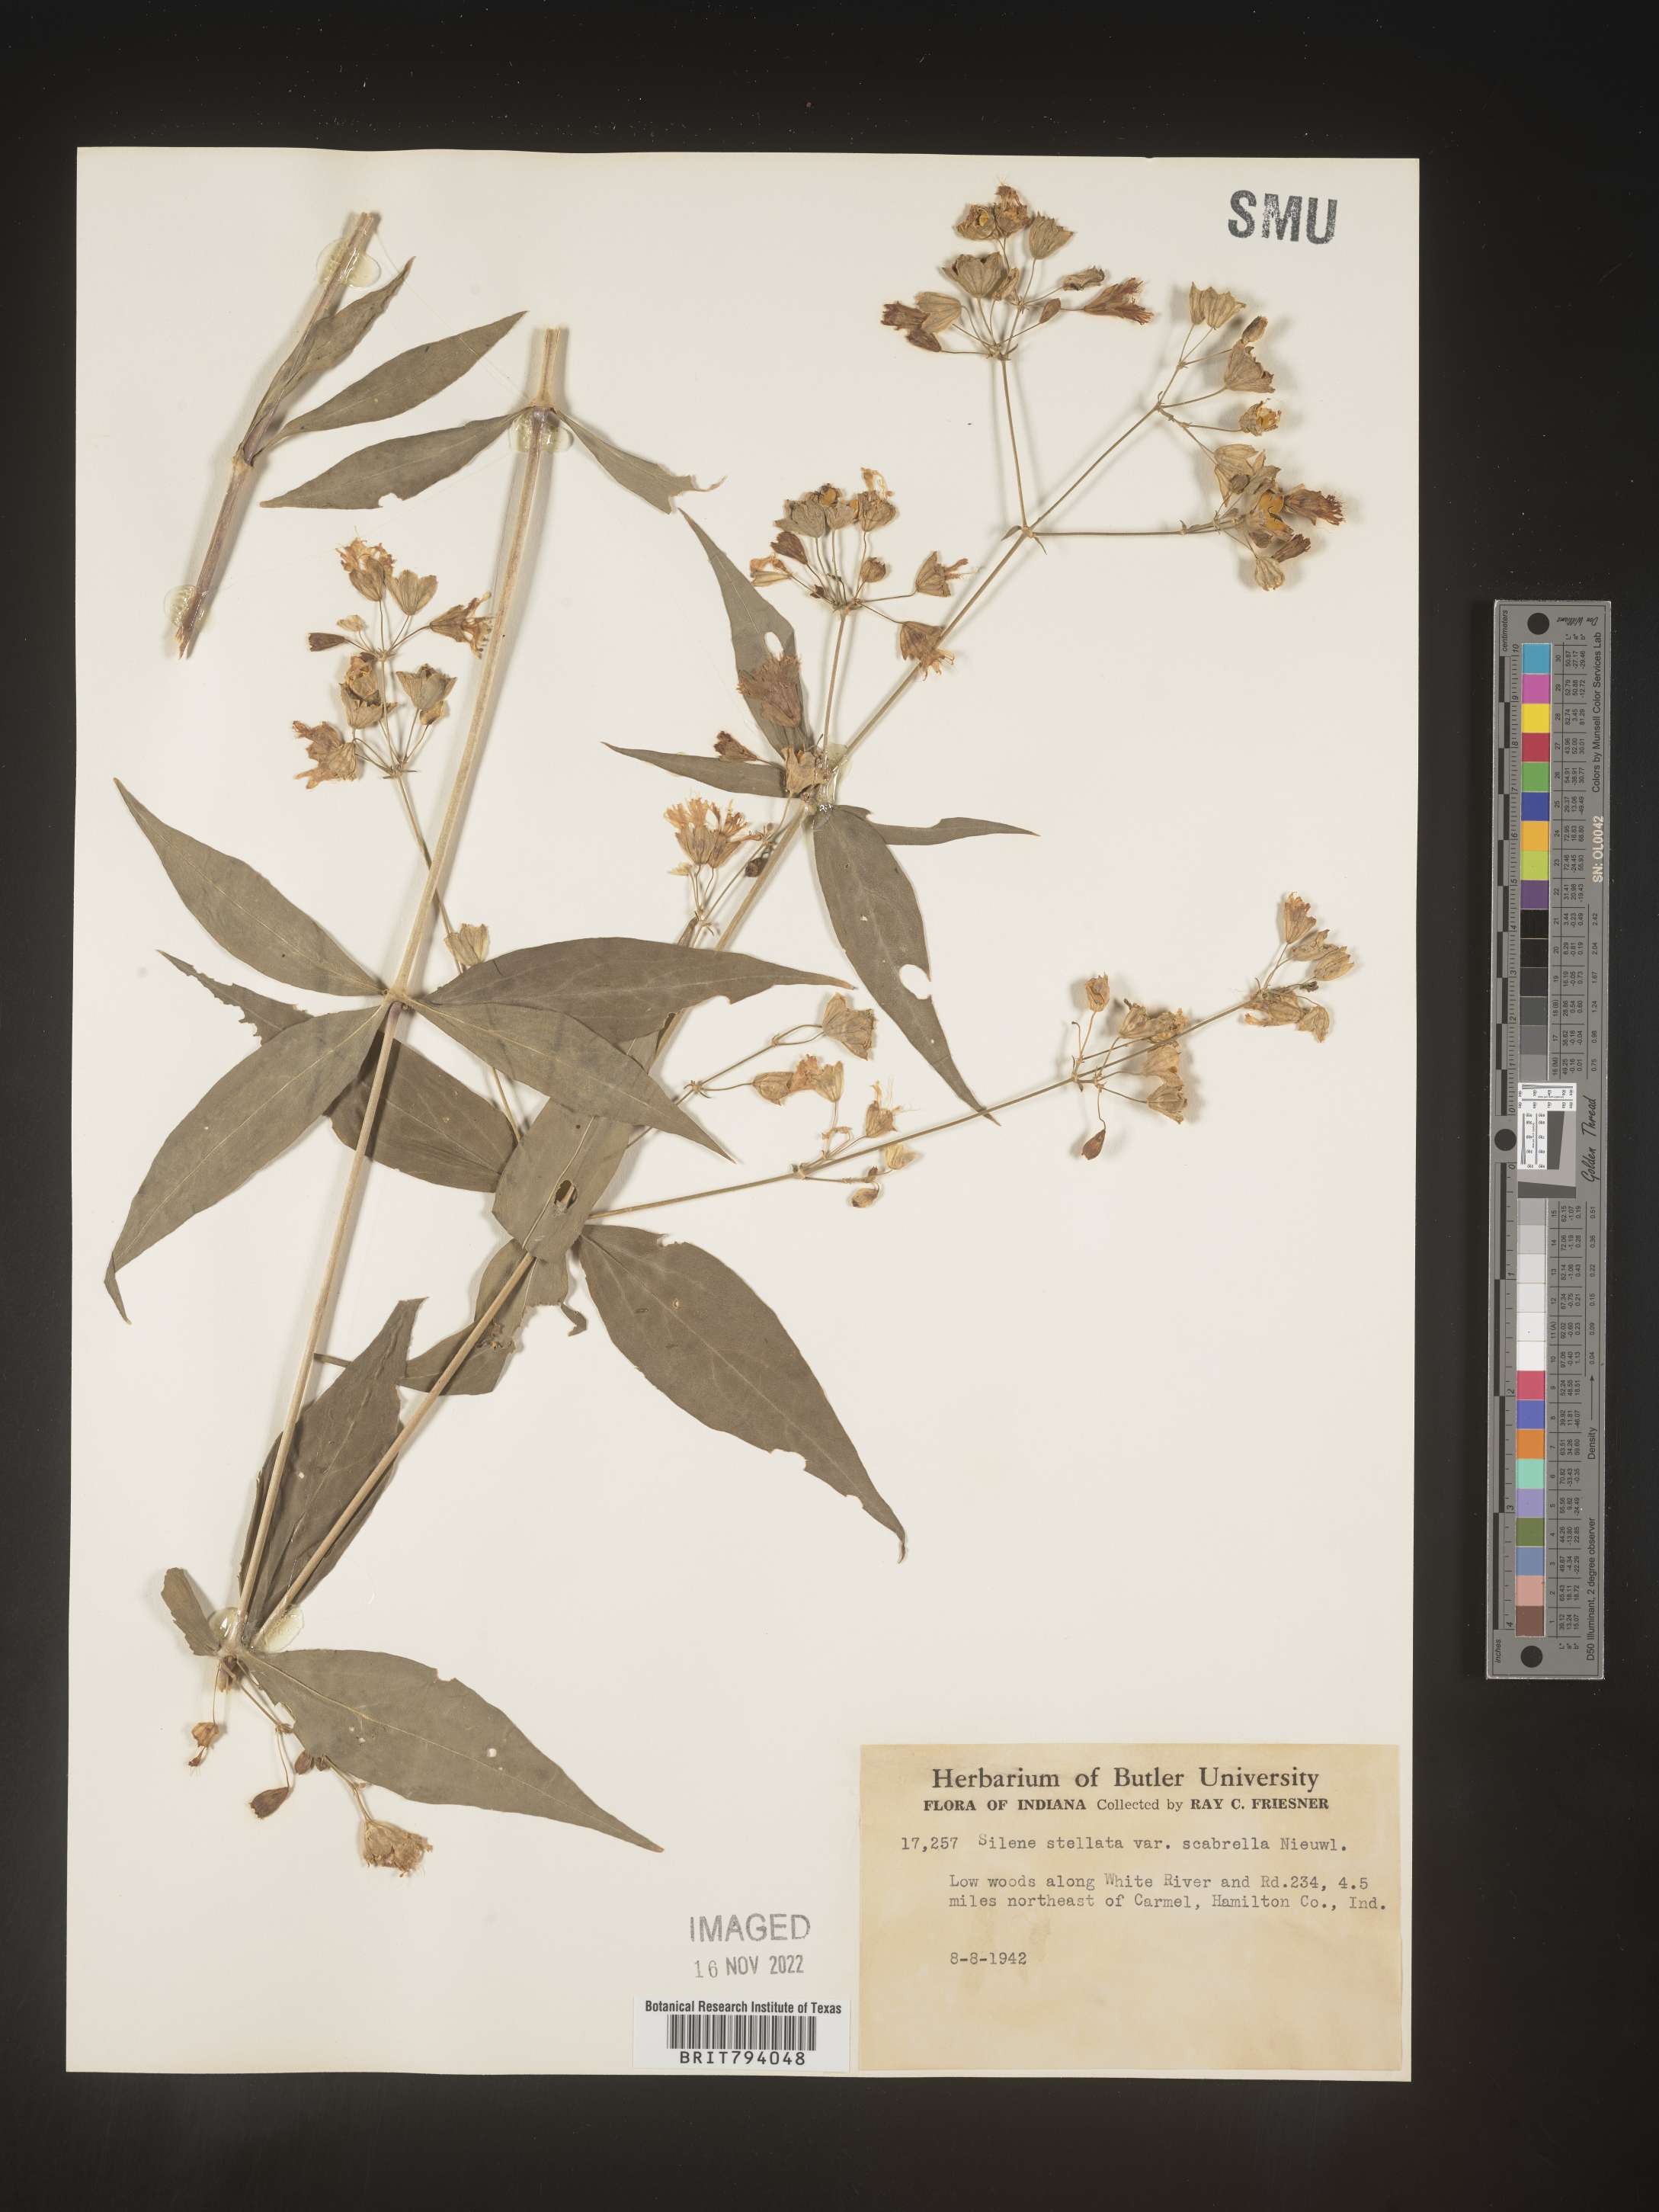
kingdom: Plantae
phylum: Tracheophyta
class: Magnoliopsida
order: Caryophyllales
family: Caryophyllaceae
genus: Silene
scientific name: Silene stellata
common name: Starry campion
